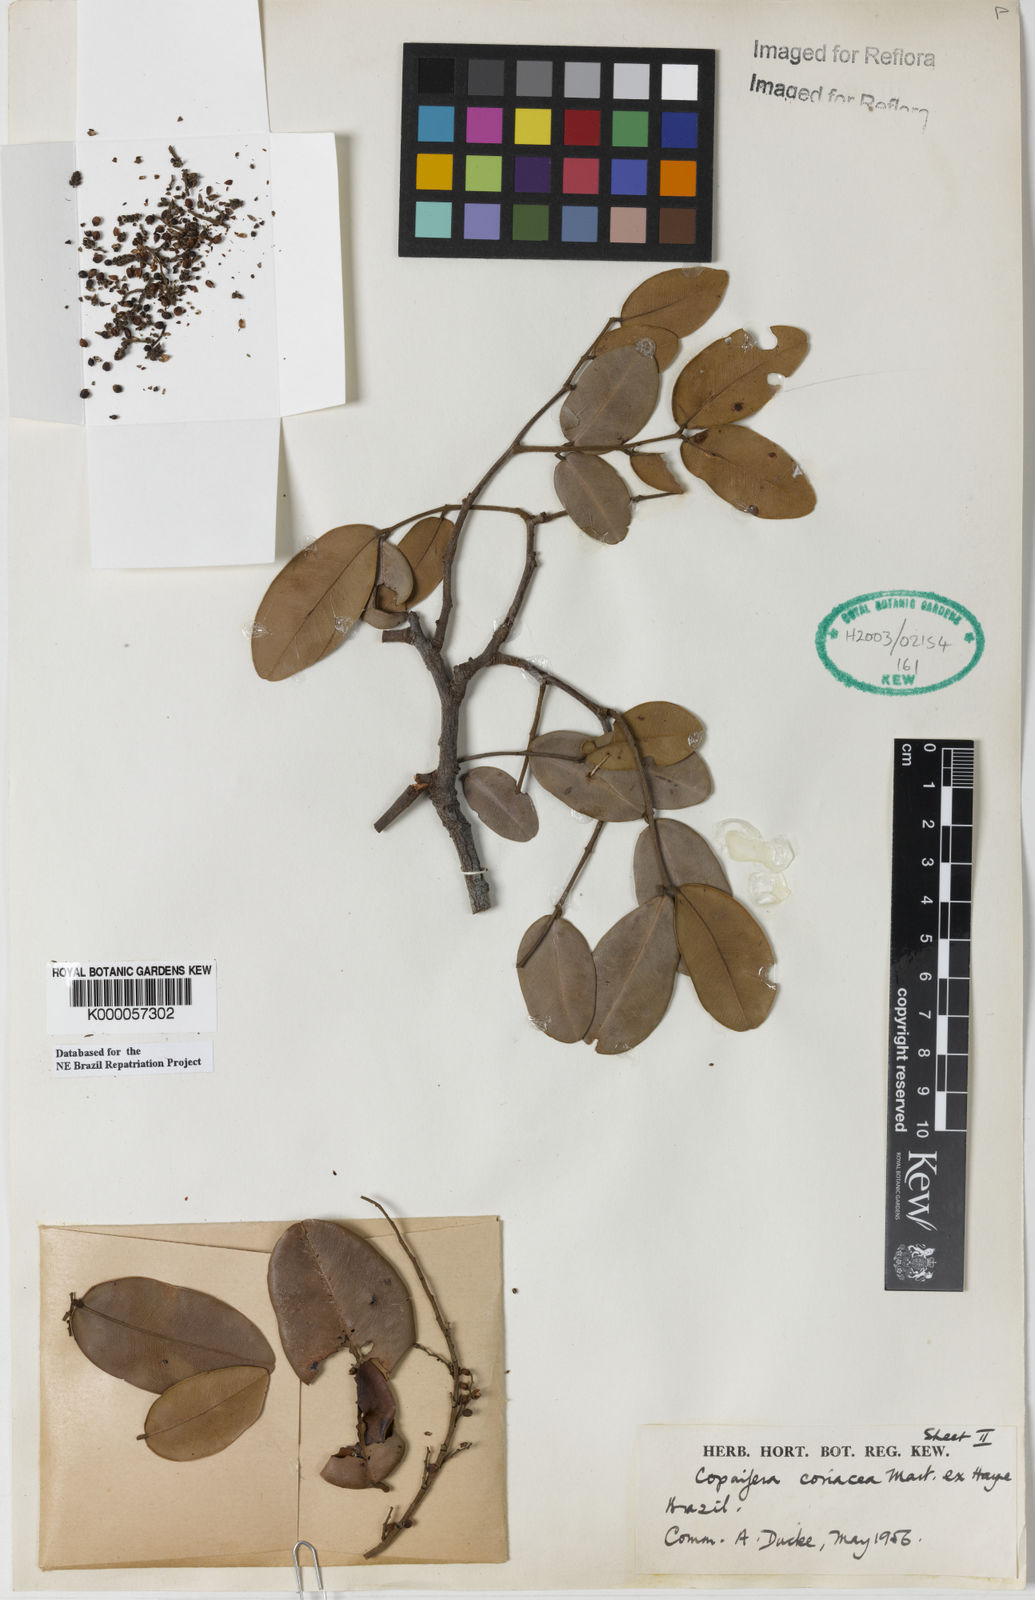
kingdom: Plantae
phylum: Tracheophyta
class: Magnoliopsida
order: Fabales
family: Fabaceae
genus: Copaifera
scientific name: Copaifera martii
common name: Copaiba
